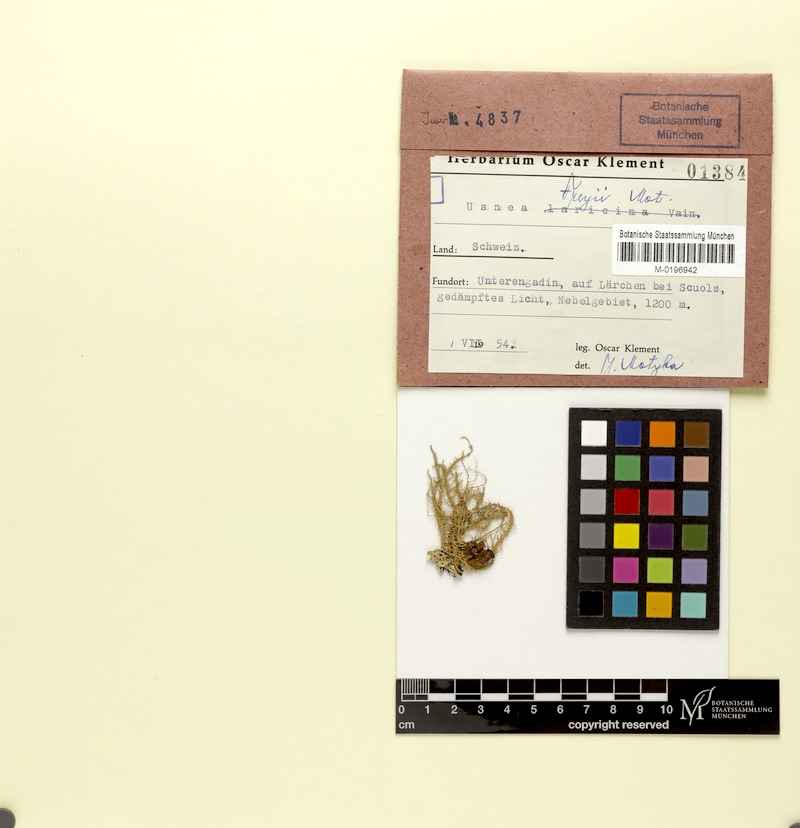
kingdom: Fungi
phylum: Ascomycota
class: Lecanoromycetes
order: Lecanorales
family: Parmeliaceae
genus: Usnea
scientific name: Usnea freyi
